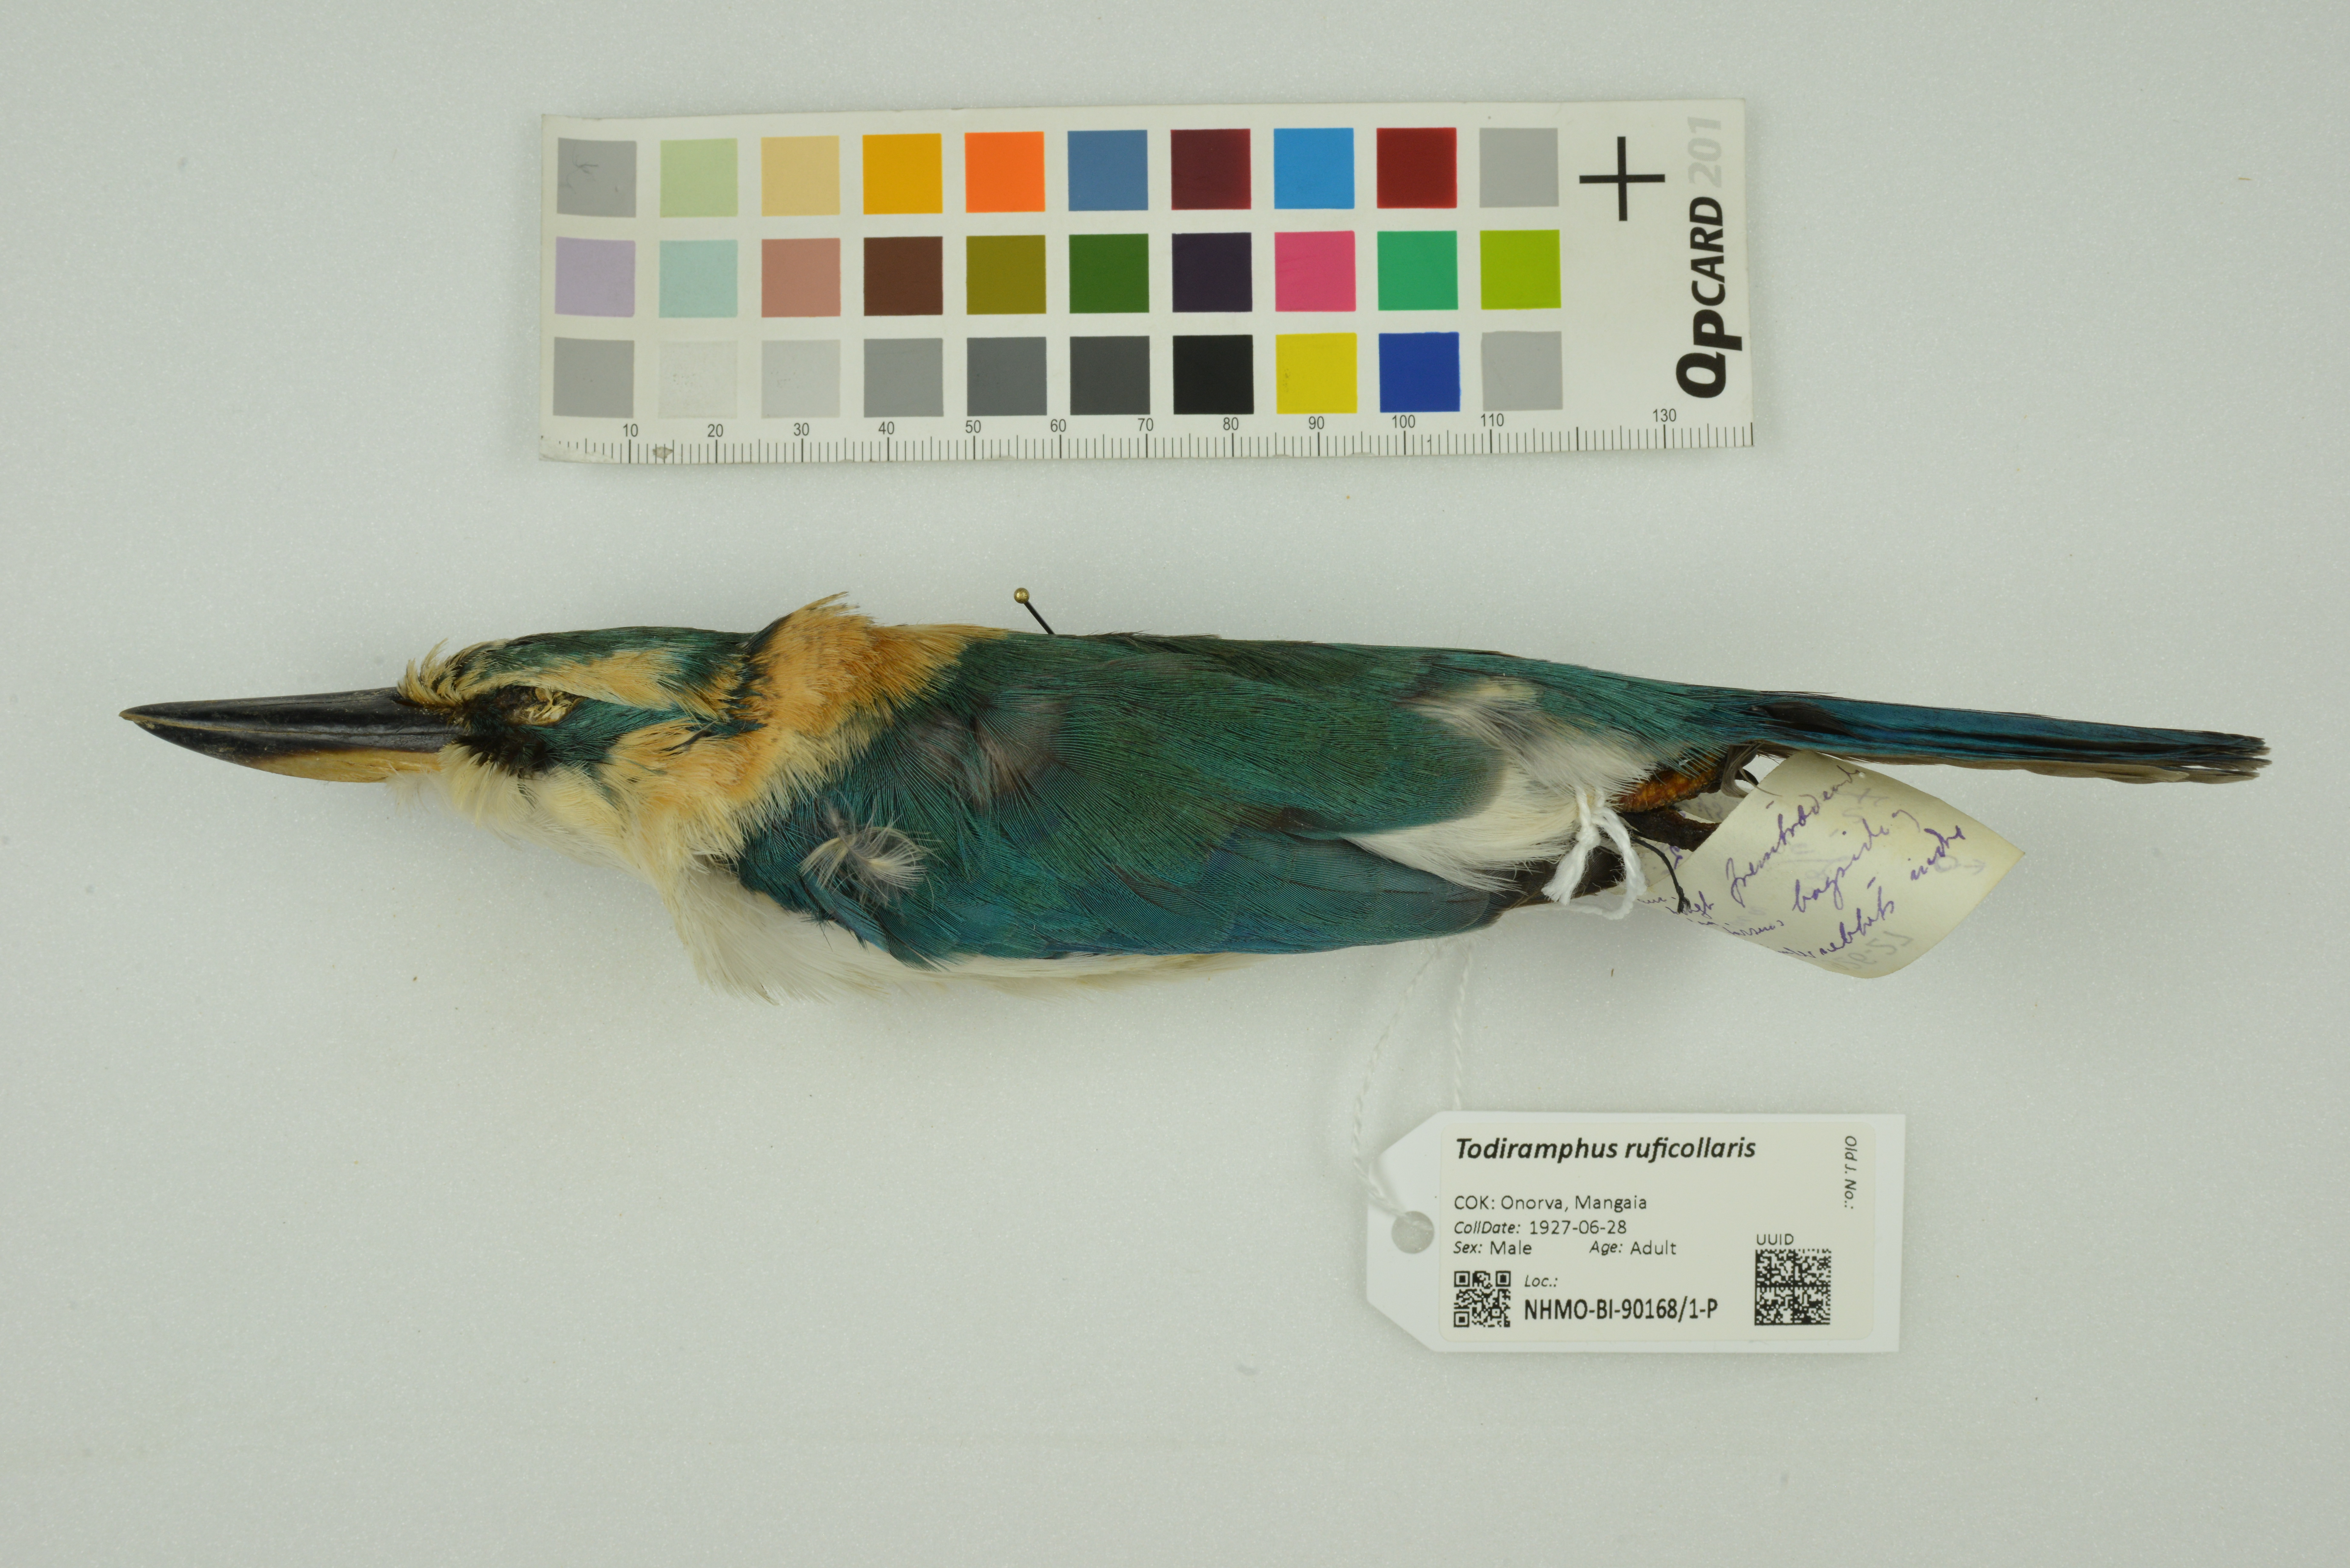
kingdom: Animalia
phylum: Chordata
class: Aves
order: Coraciiformes
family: Alcedinidae
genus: Todiramphus
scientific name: Todiramphus ruficollaris
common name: Mewing kingfisher
